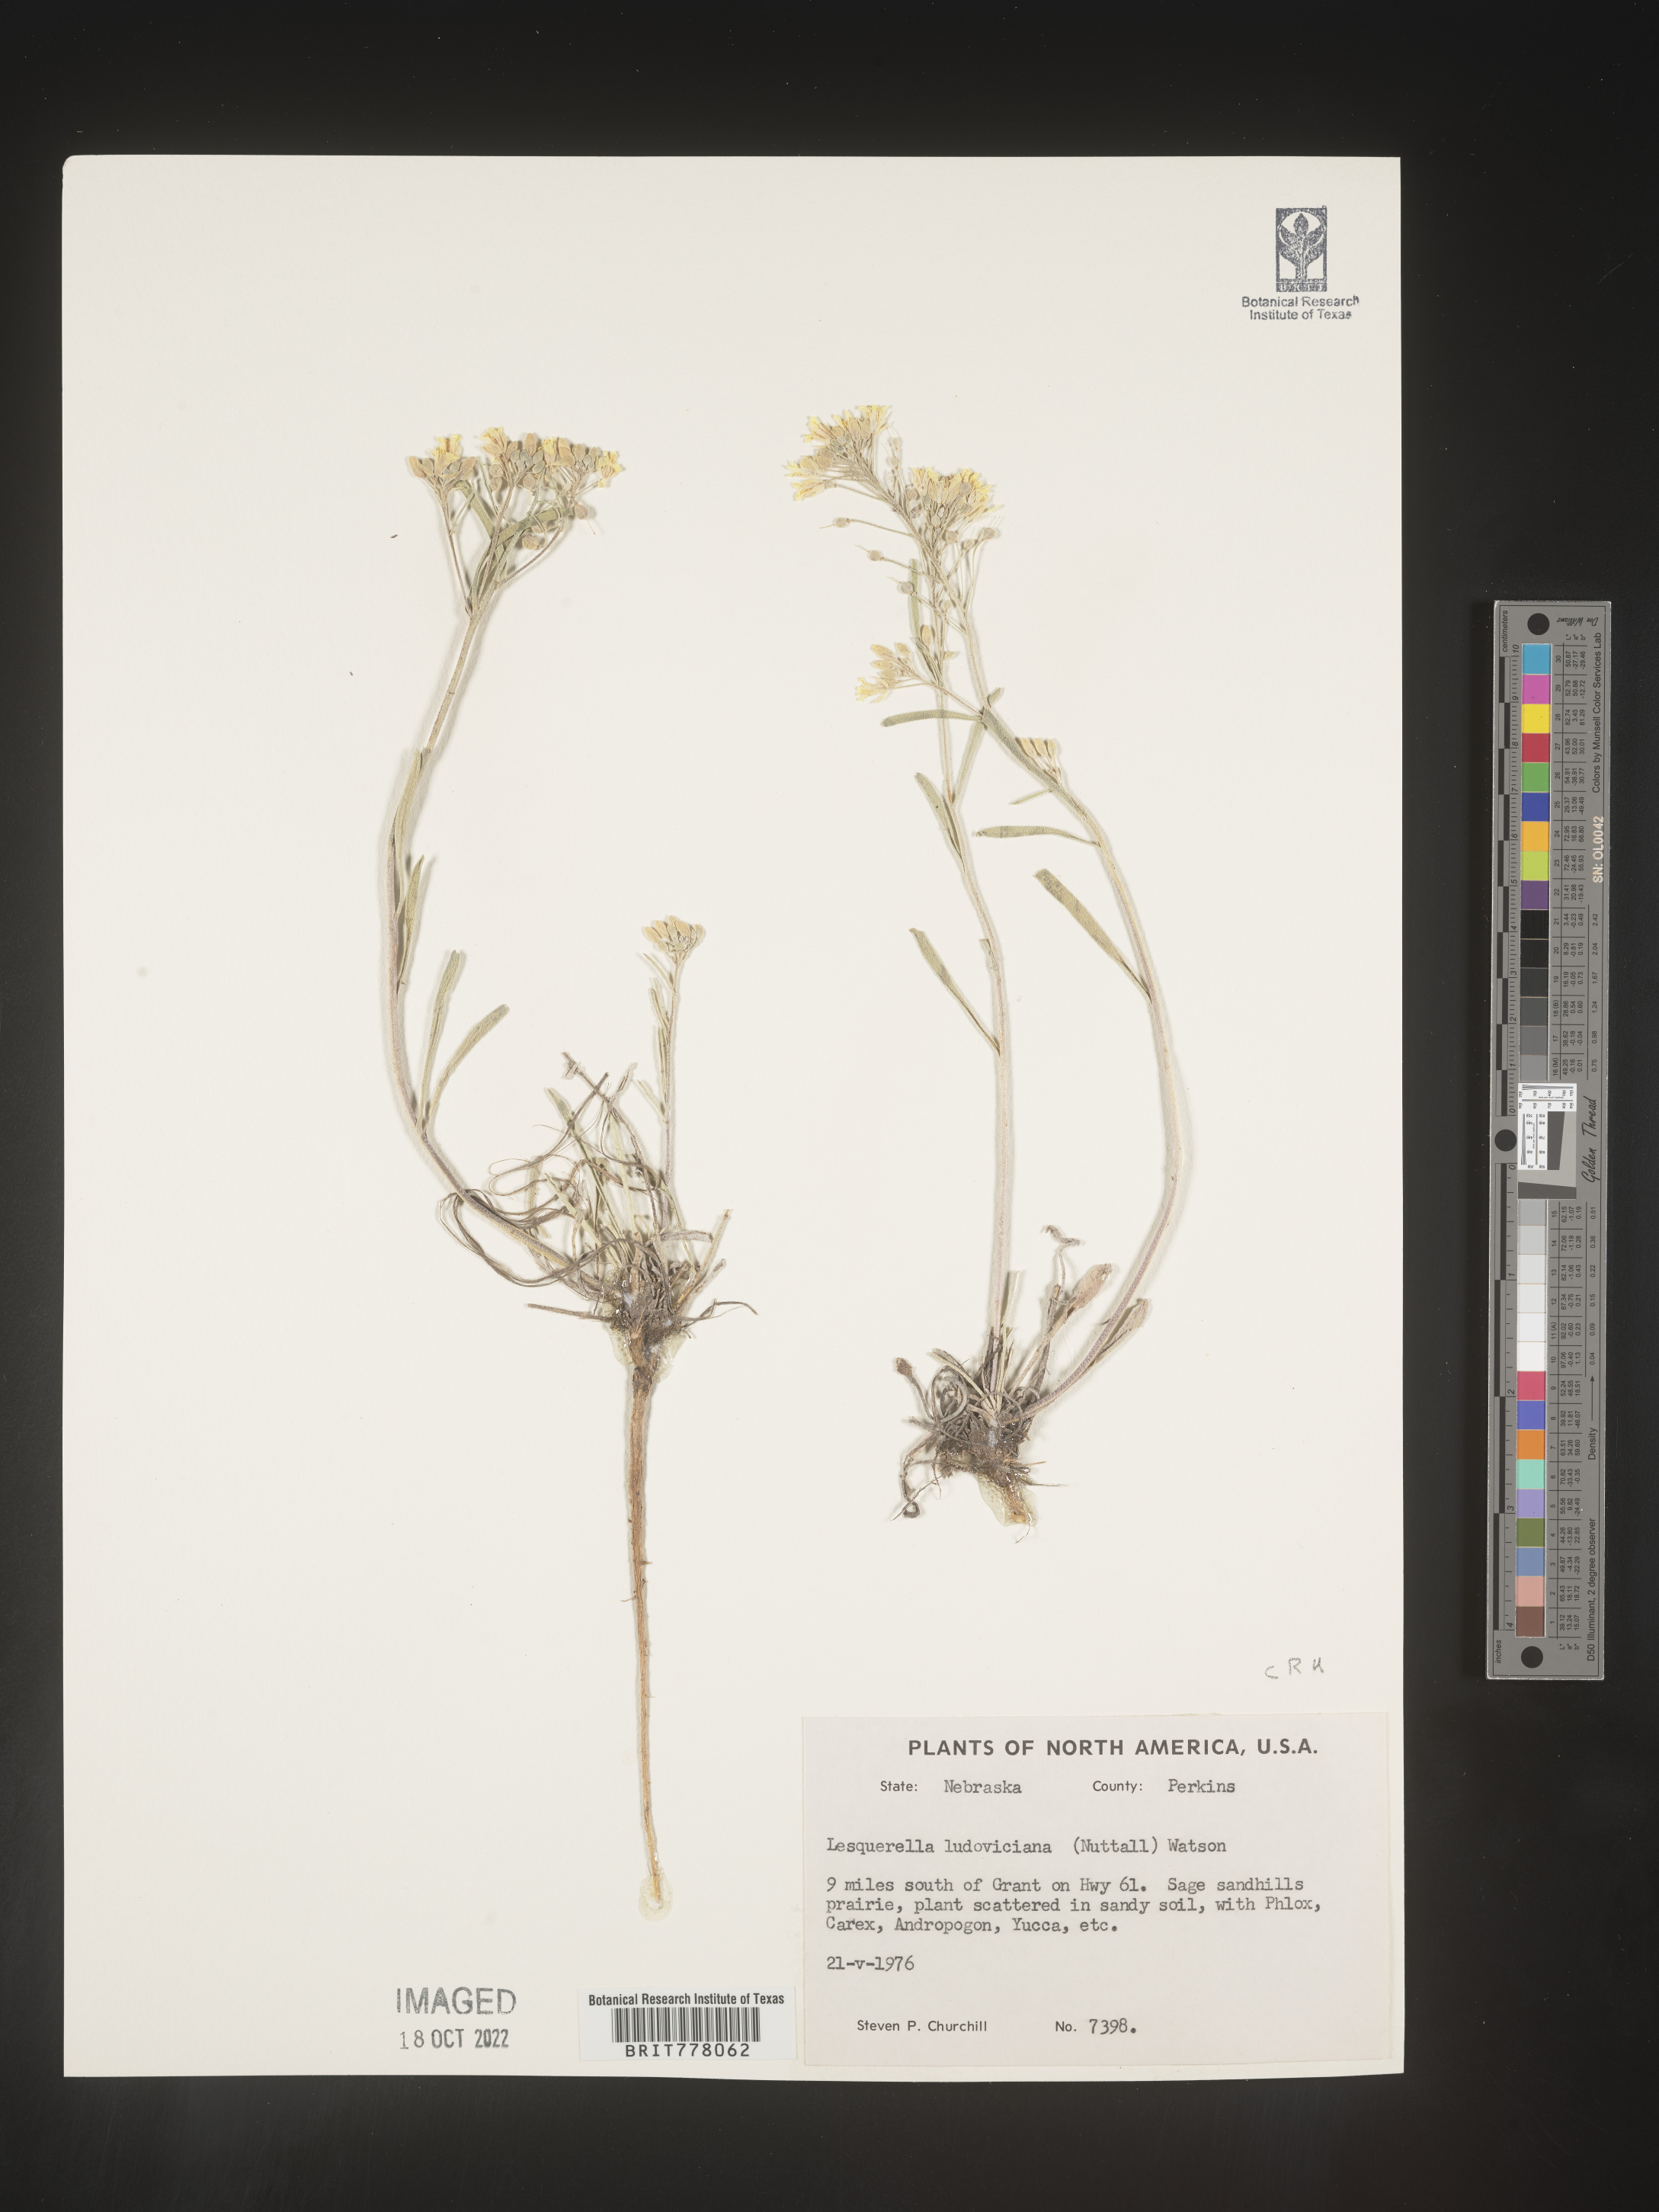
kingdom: Chromista
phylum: Cercozoa
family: Psammonobiotidae
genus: Lesquerella
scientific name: Lesquerella
